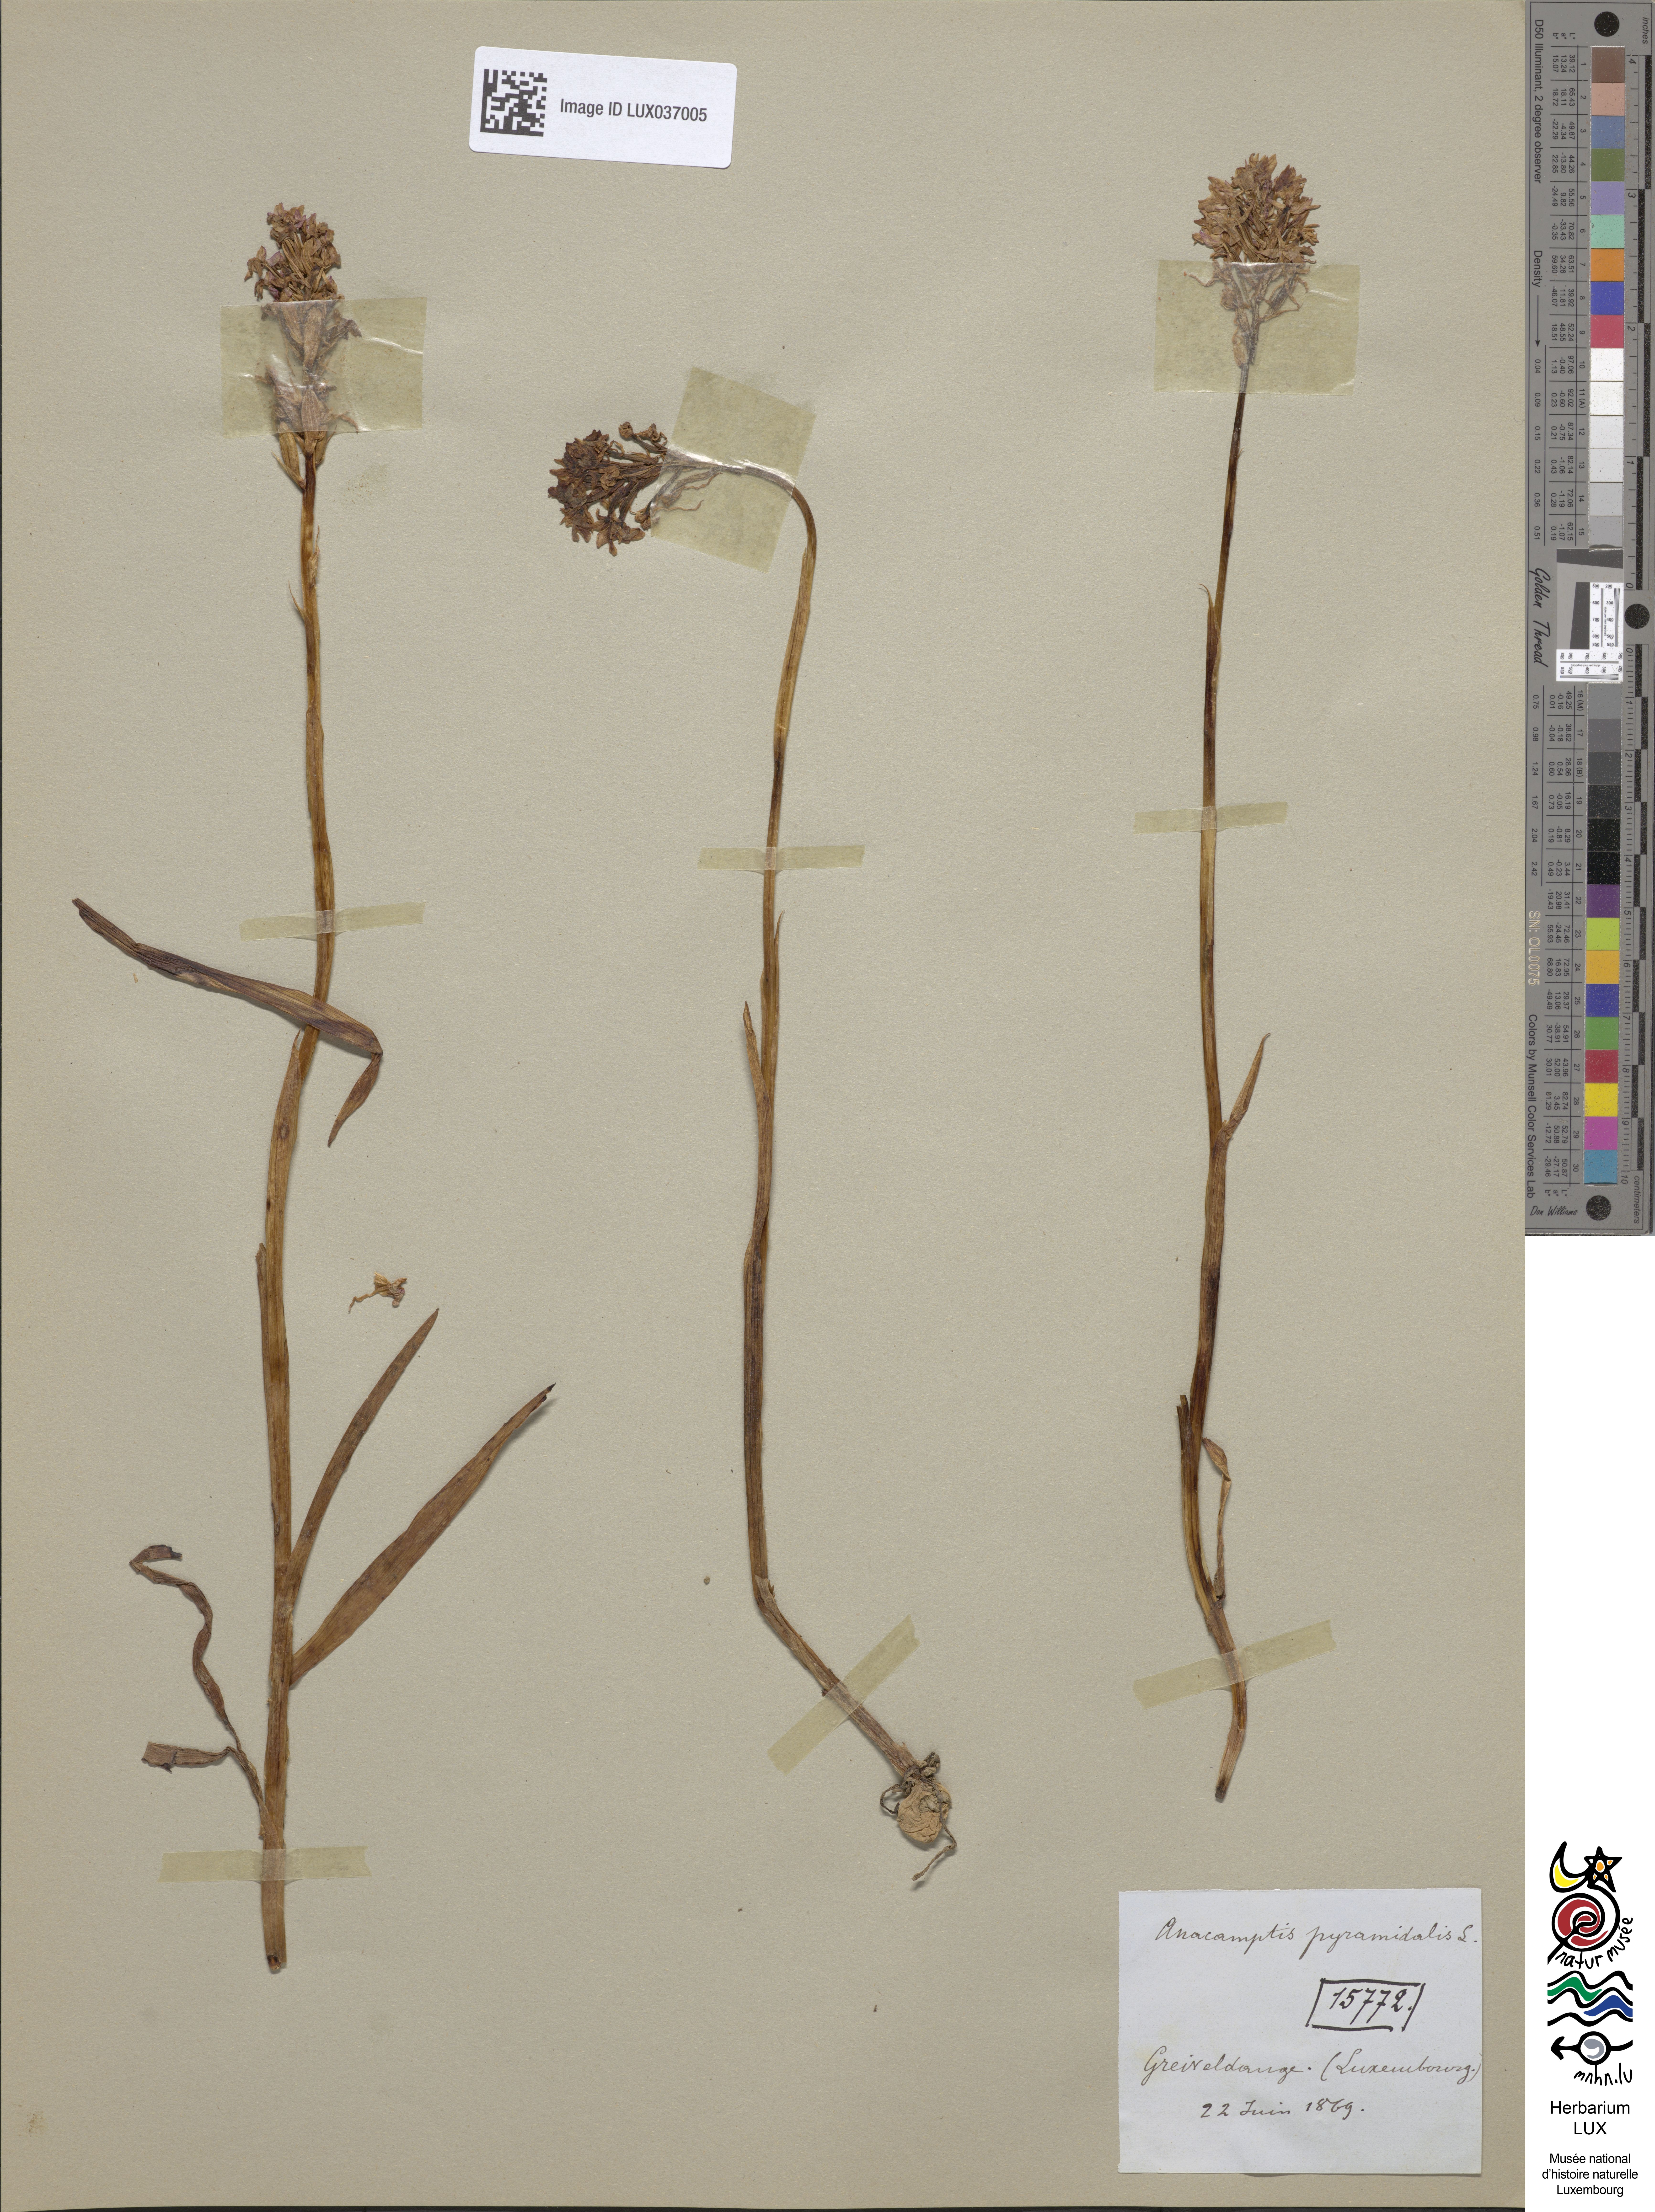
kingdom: Plantae
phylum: Tracheophyta
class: Liliopsida
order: Asparagales
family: Orchidaceae
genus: Anacamptis
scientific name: Anacamptis pyramidalis
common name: Pyramidal orchid
